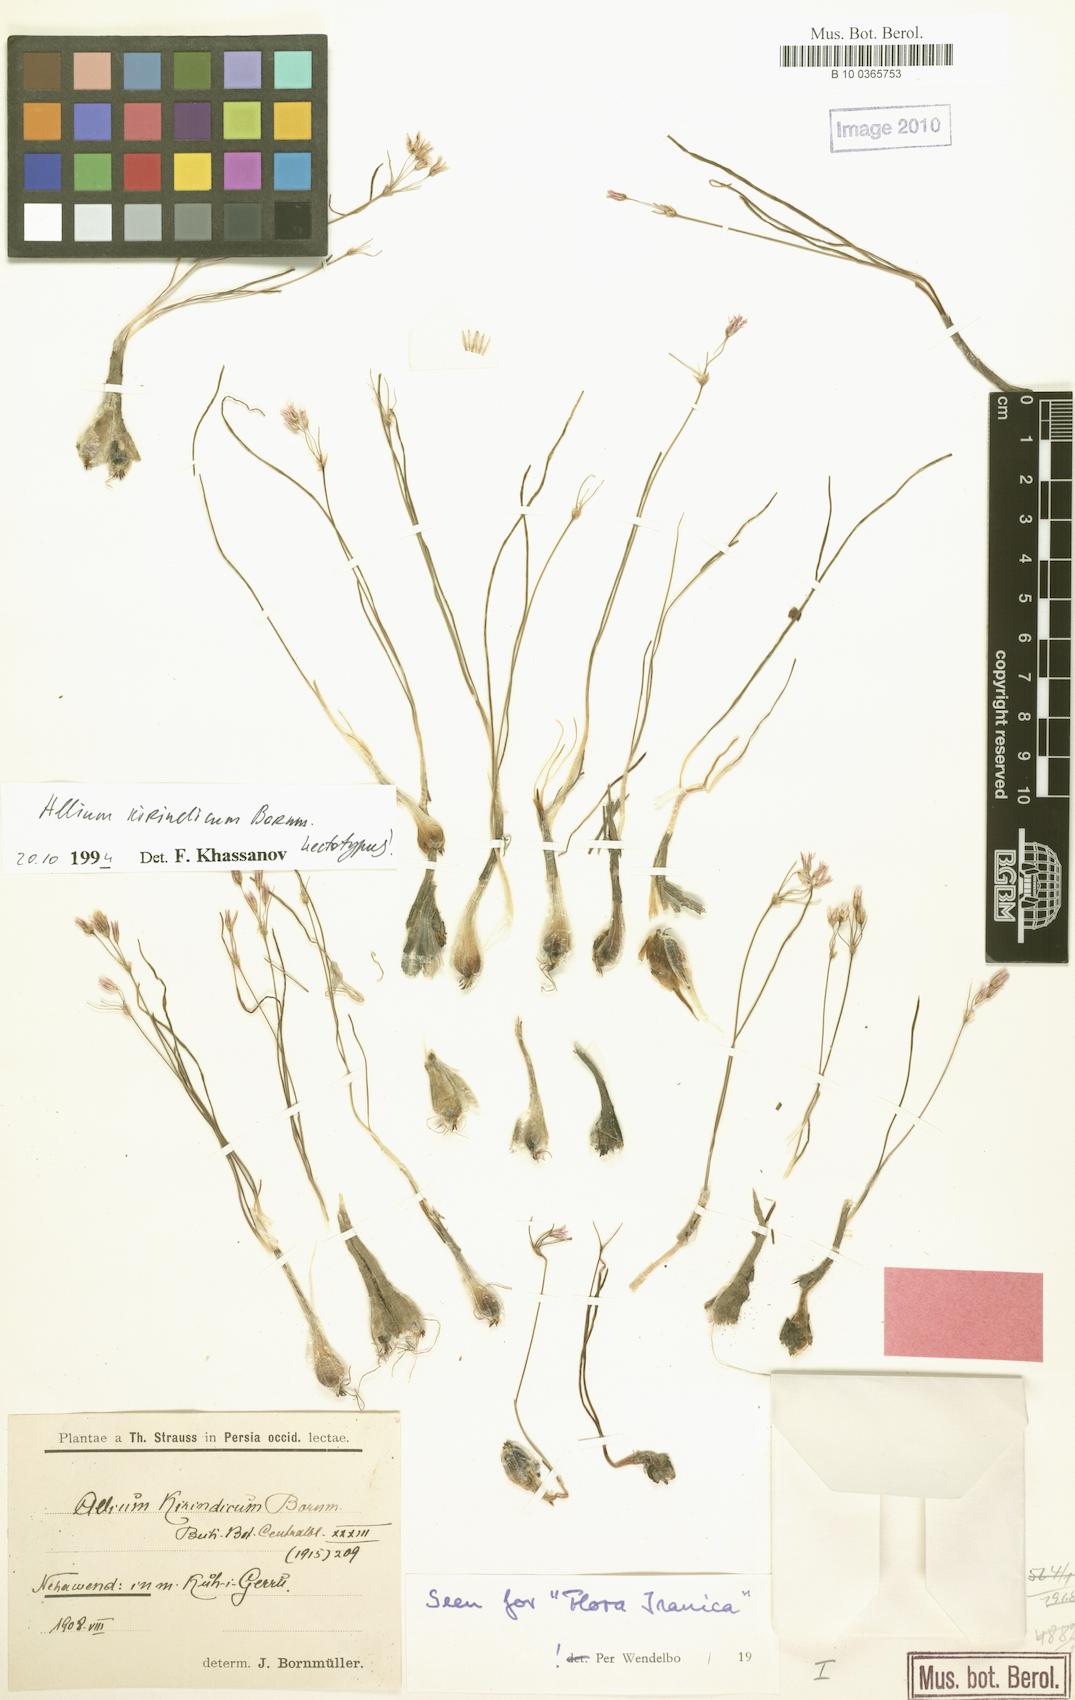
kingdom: Plantae
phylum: Tracheophyta
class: Liliopsida
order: Asparagales
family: Amaryllidaceae
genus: Allium
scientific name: Allium kirindicum
